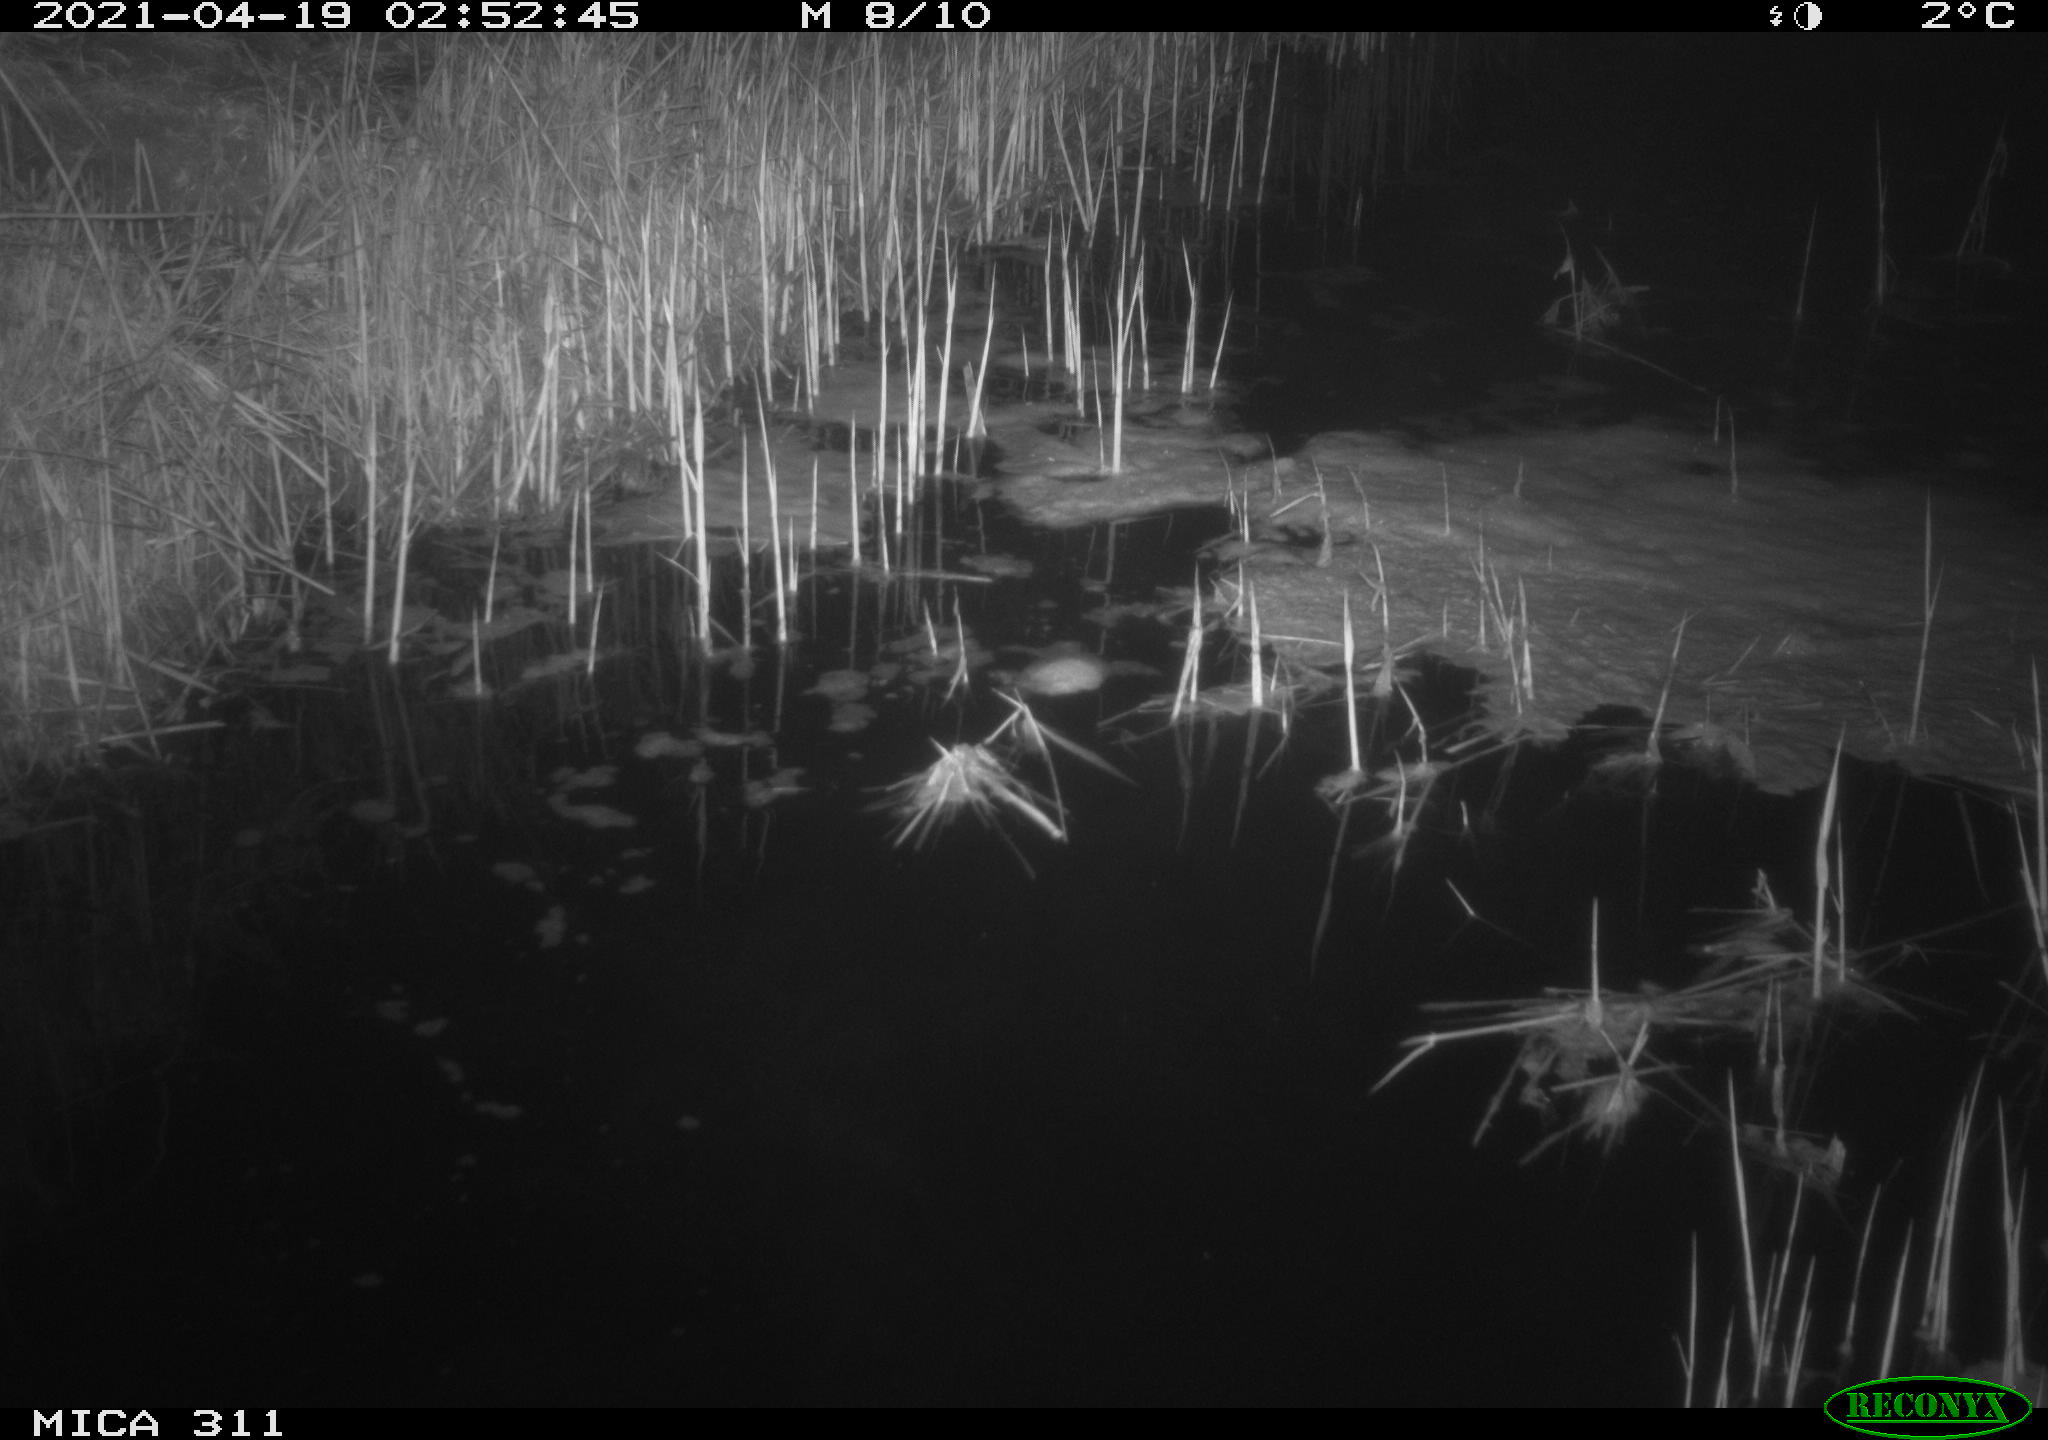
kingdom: Animalia
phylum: Chordata
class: Mammalia
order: Rodentia
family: Cricetidae
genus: Ondatra
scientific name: Ondatra zibethicus
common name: Muskrat
